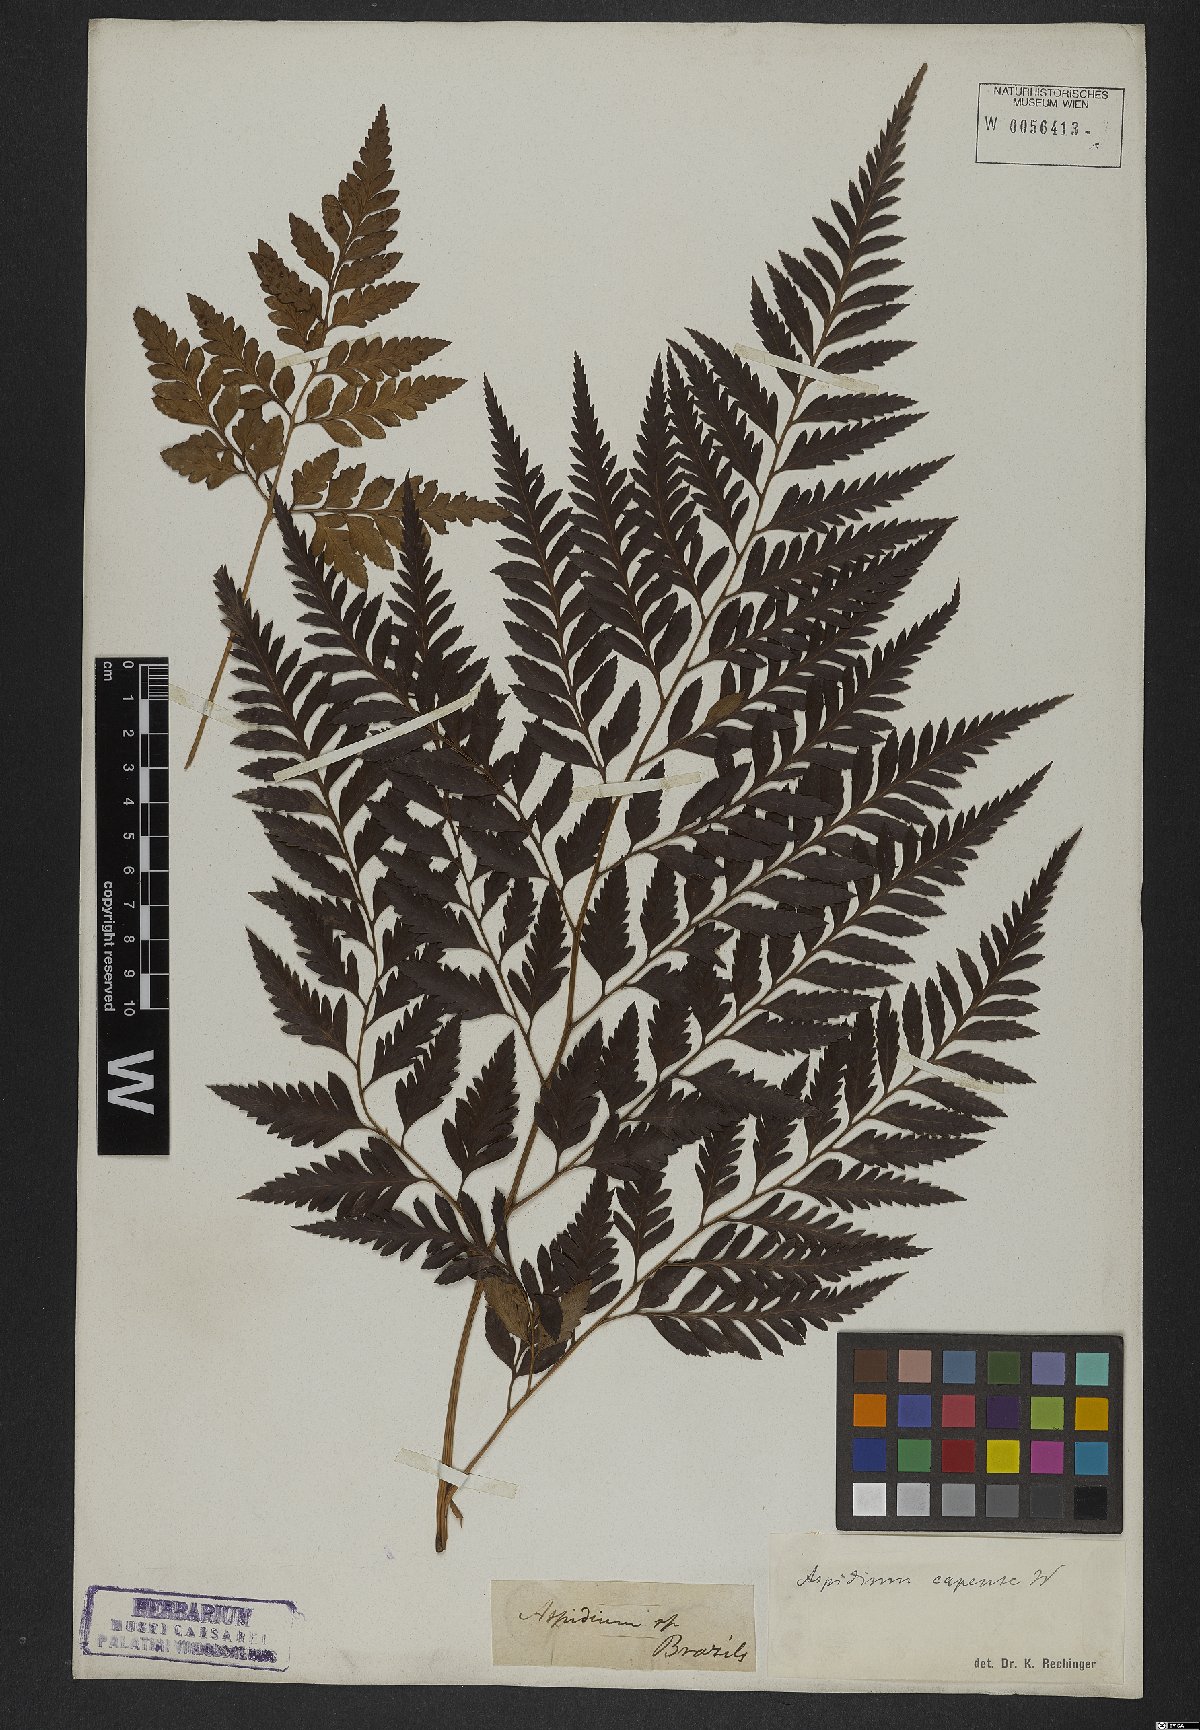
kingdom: Plantae
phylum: Tracheophyta
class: Polypodiopsida
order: Polypodiales
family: Dryopteridaceae
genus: Rumohra
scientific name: Rumohra adiantiformis
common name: Leather fern
